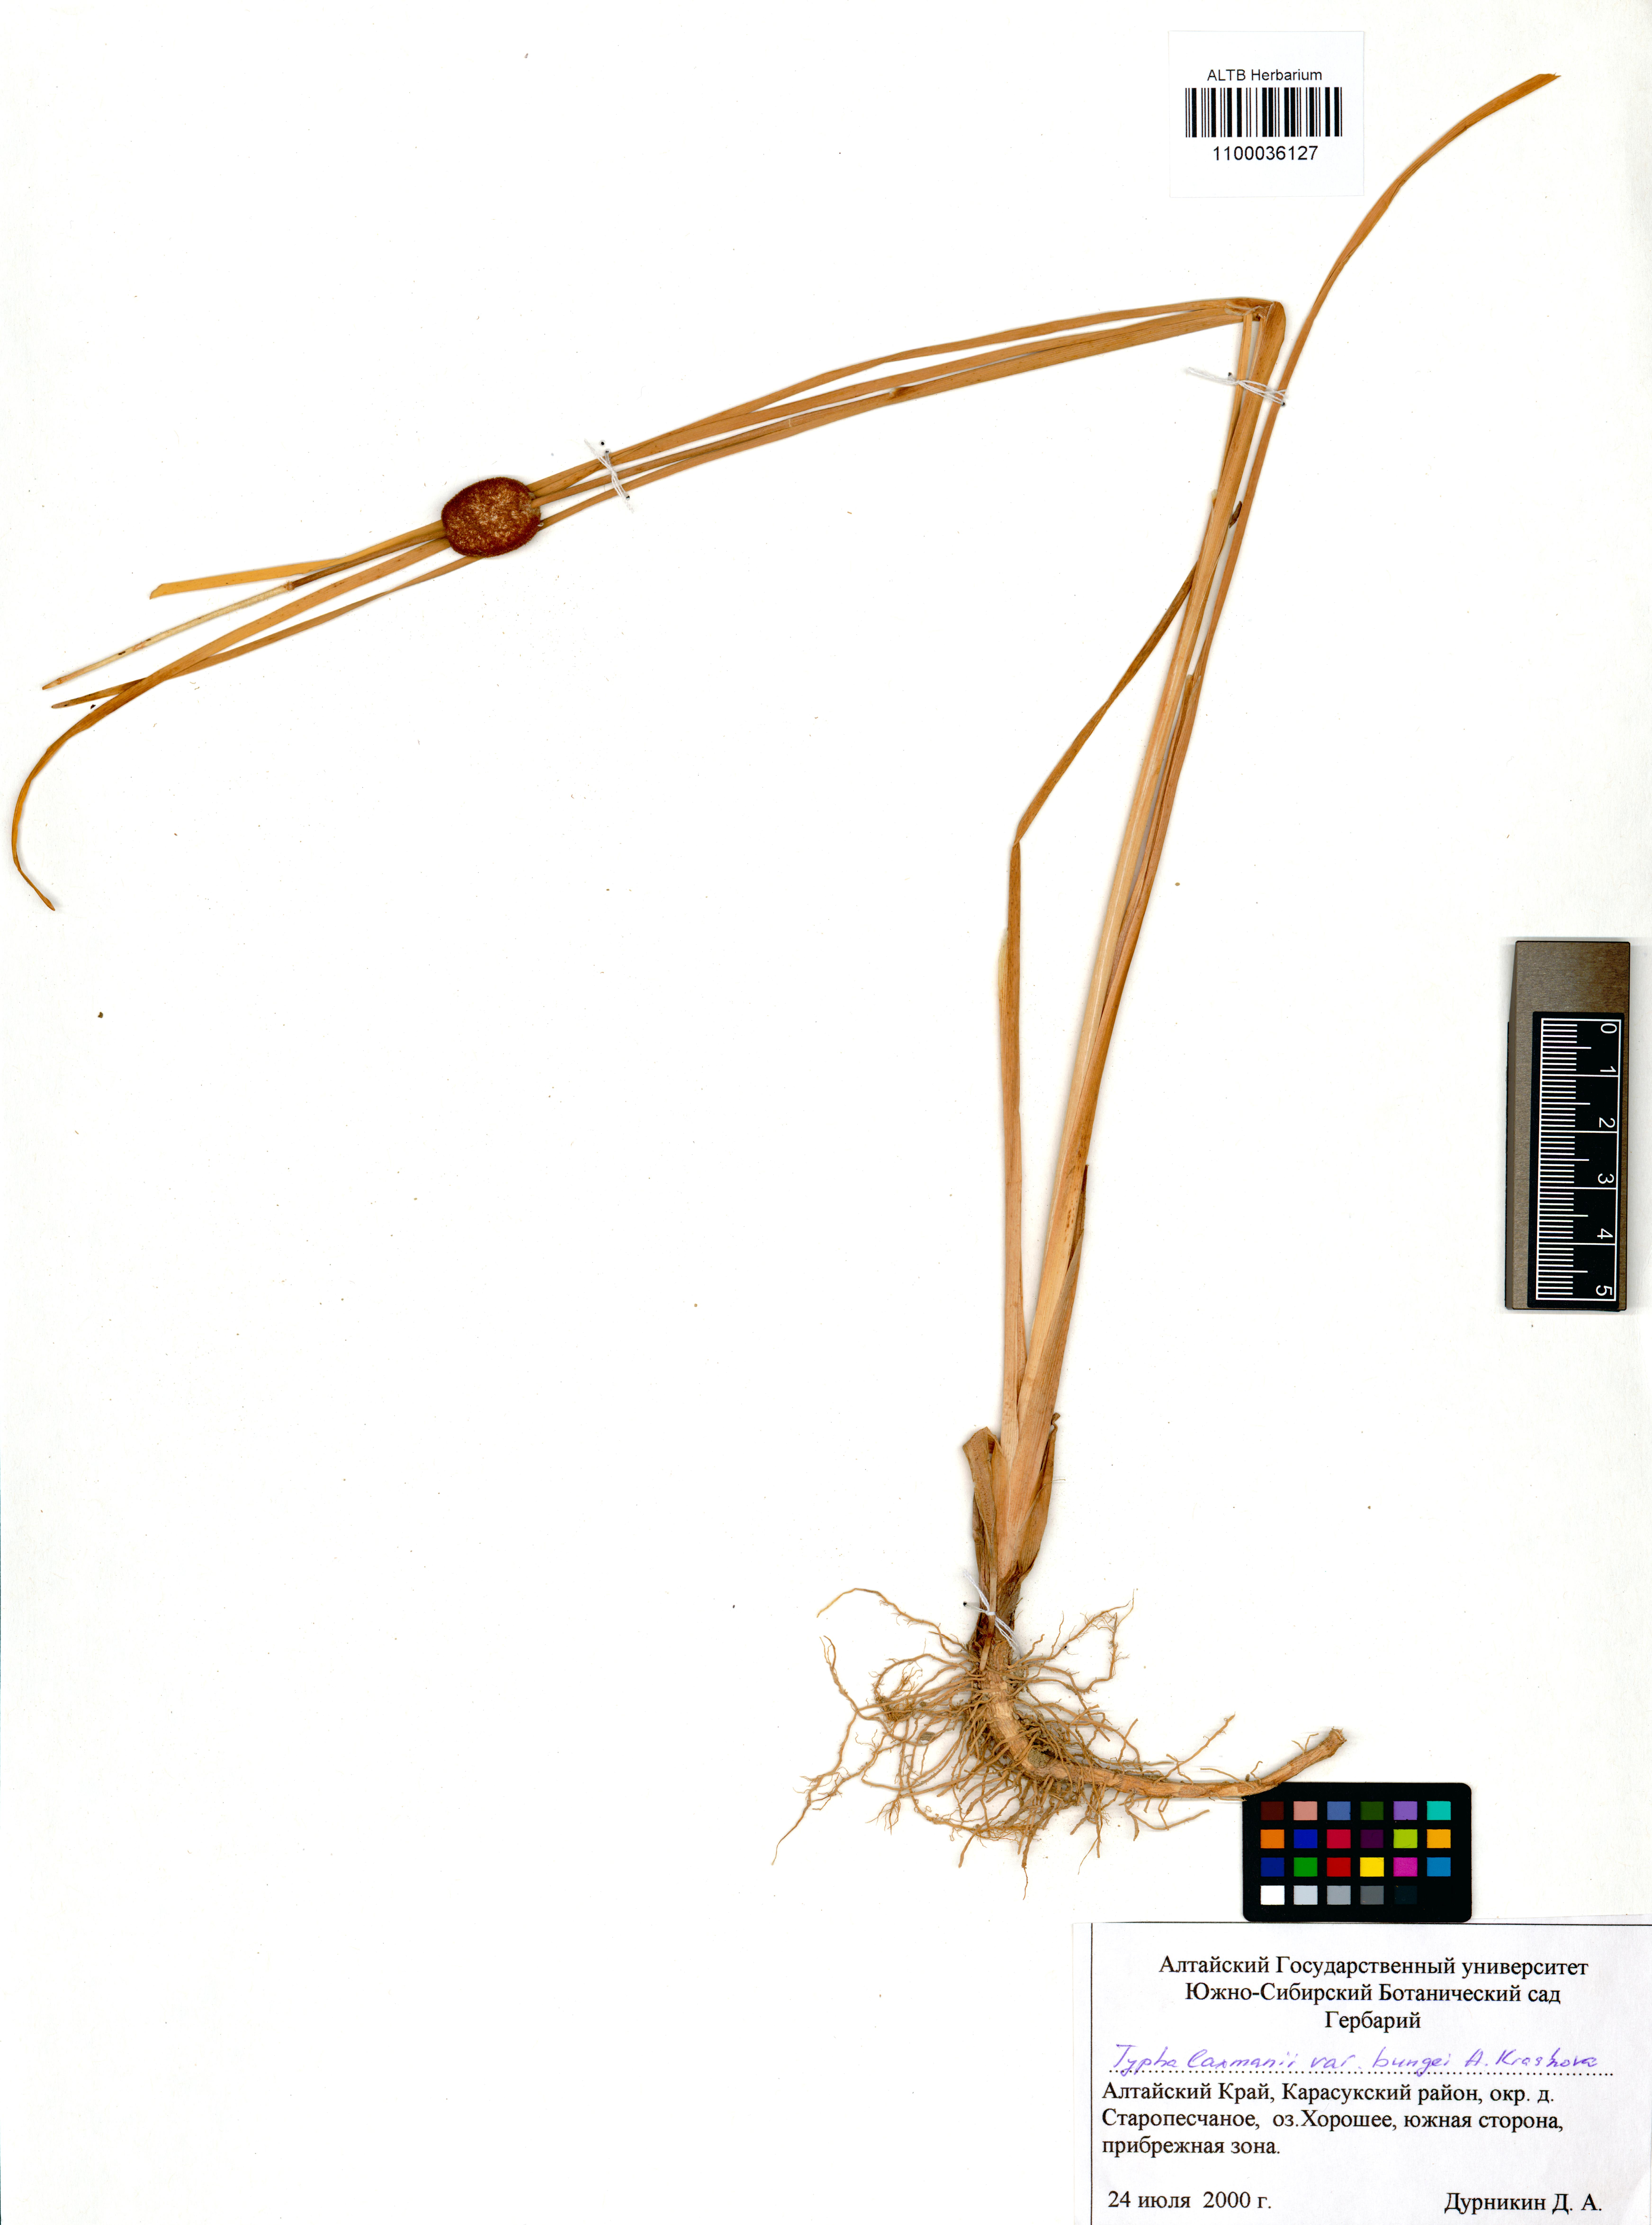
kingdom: Plantae
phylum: Tracheophyta
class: Liliopsida
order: Poales
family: Typhaceae
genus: Typha
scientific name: Typha laxmannii
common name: Laxman’s bulrush
